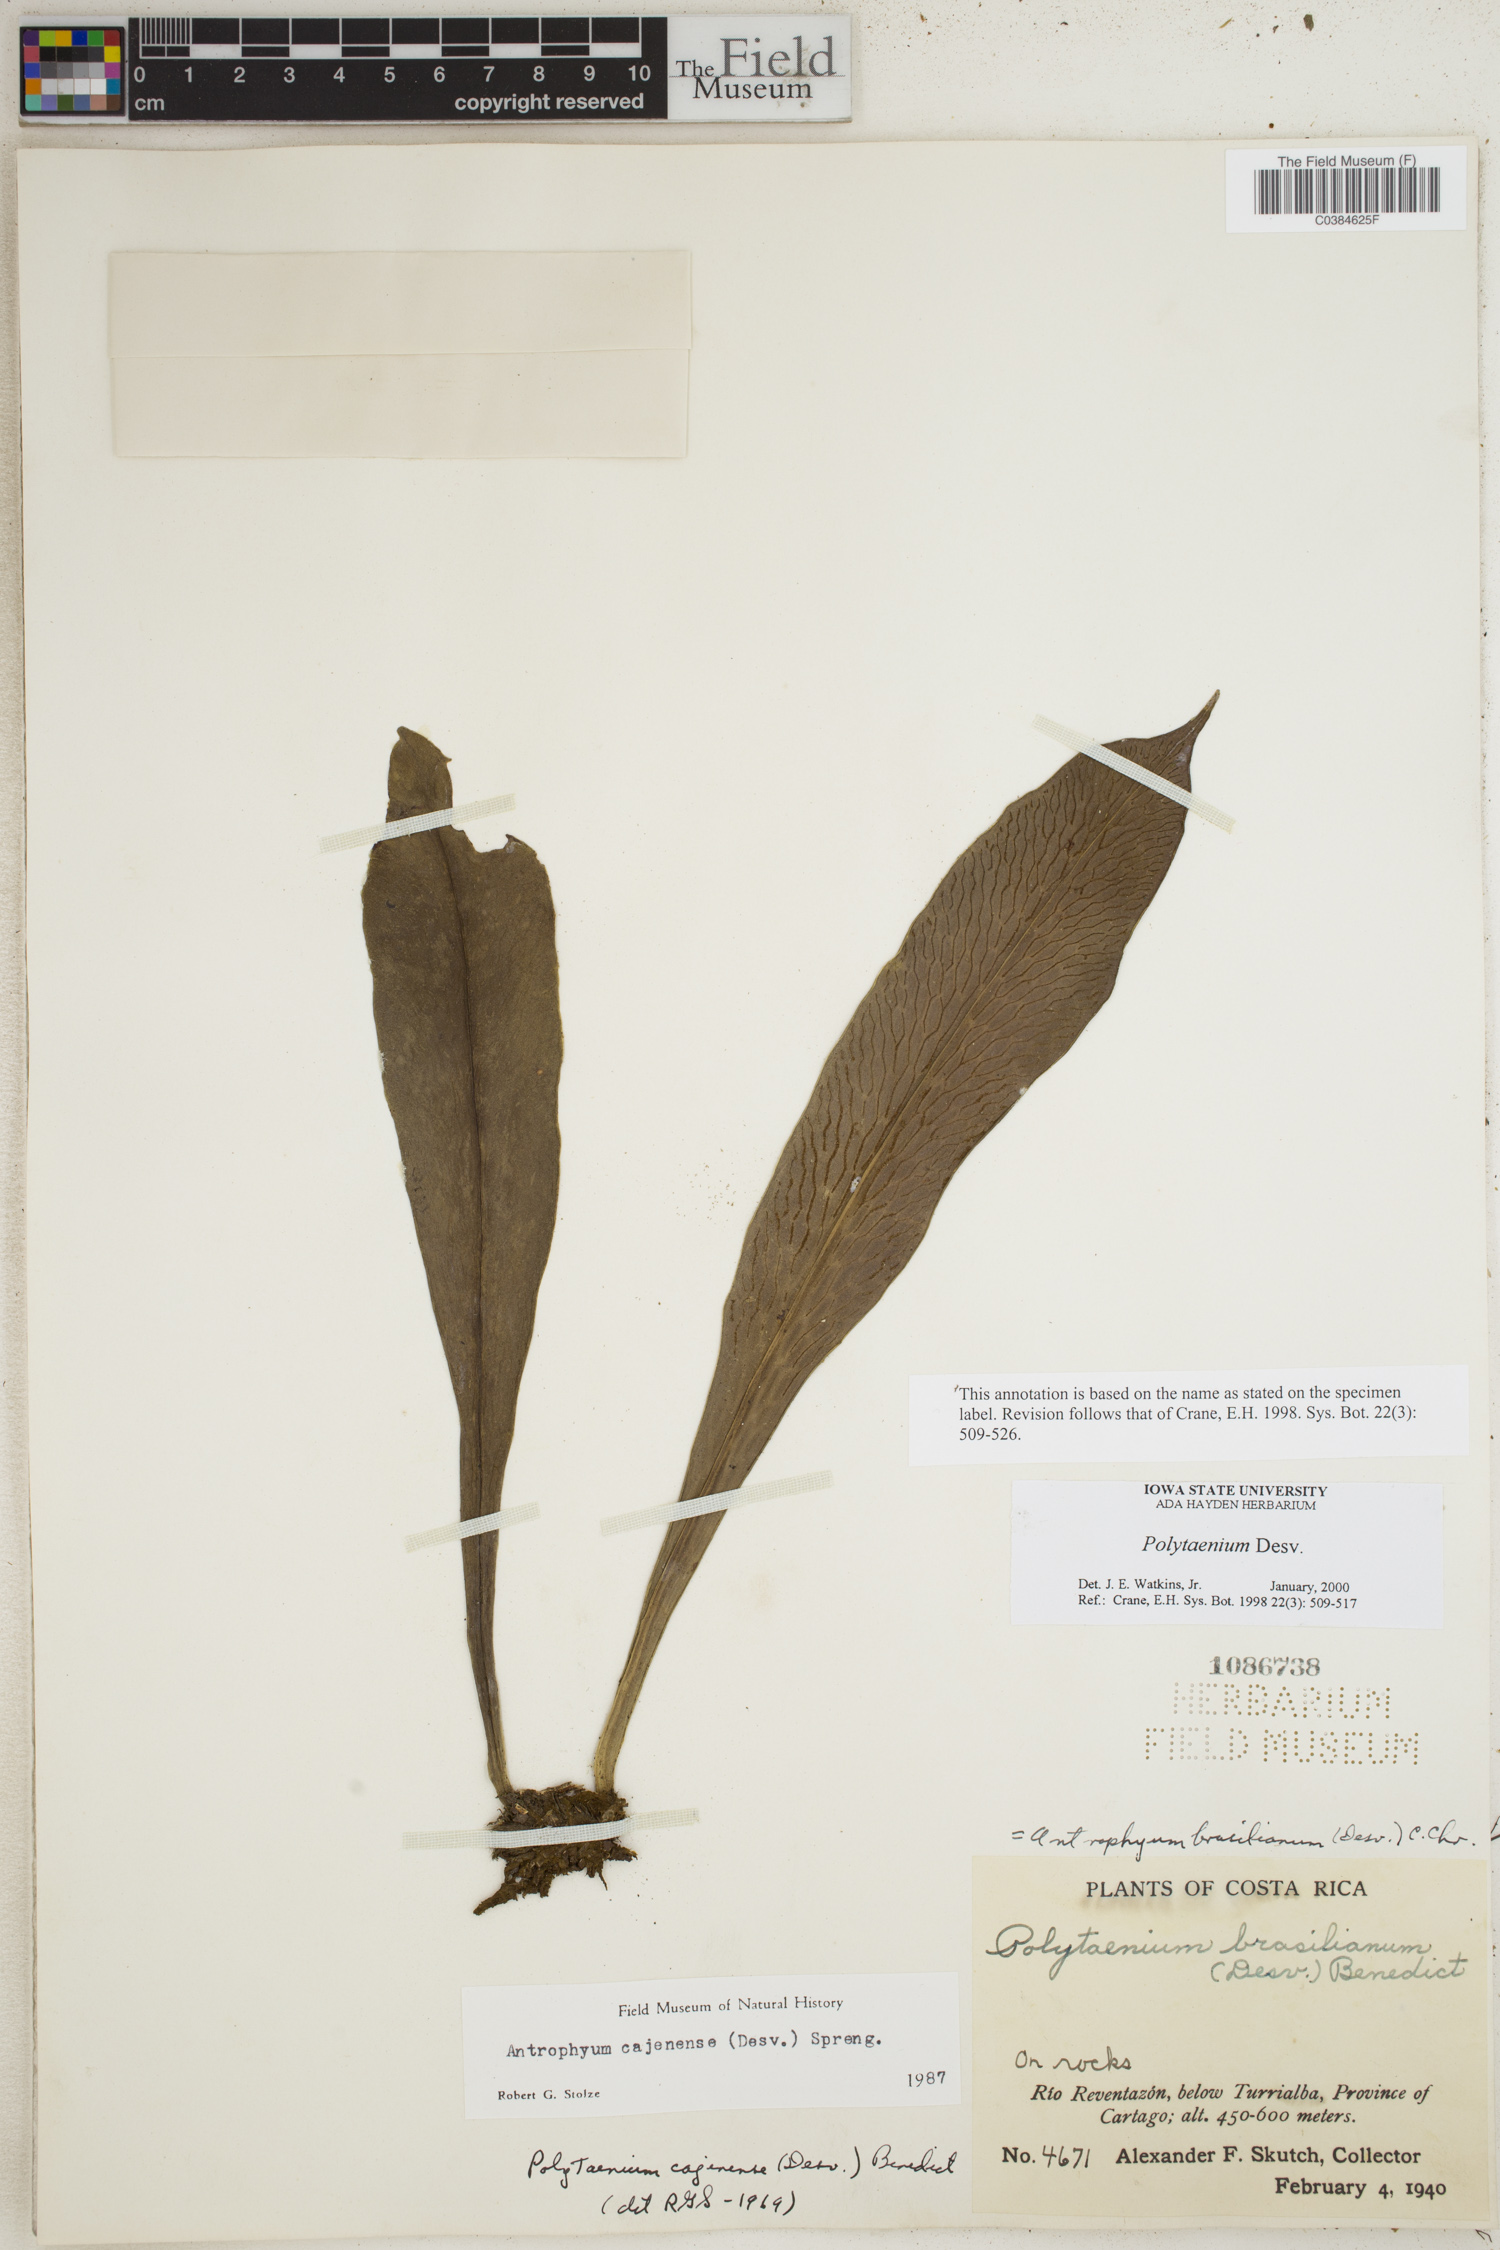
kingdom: Plantae
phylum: Tracheophyta
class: Polypodiopsida
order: Polypodiales
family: Pteridaceae
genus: Polytaenium
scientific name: Polytaenium
